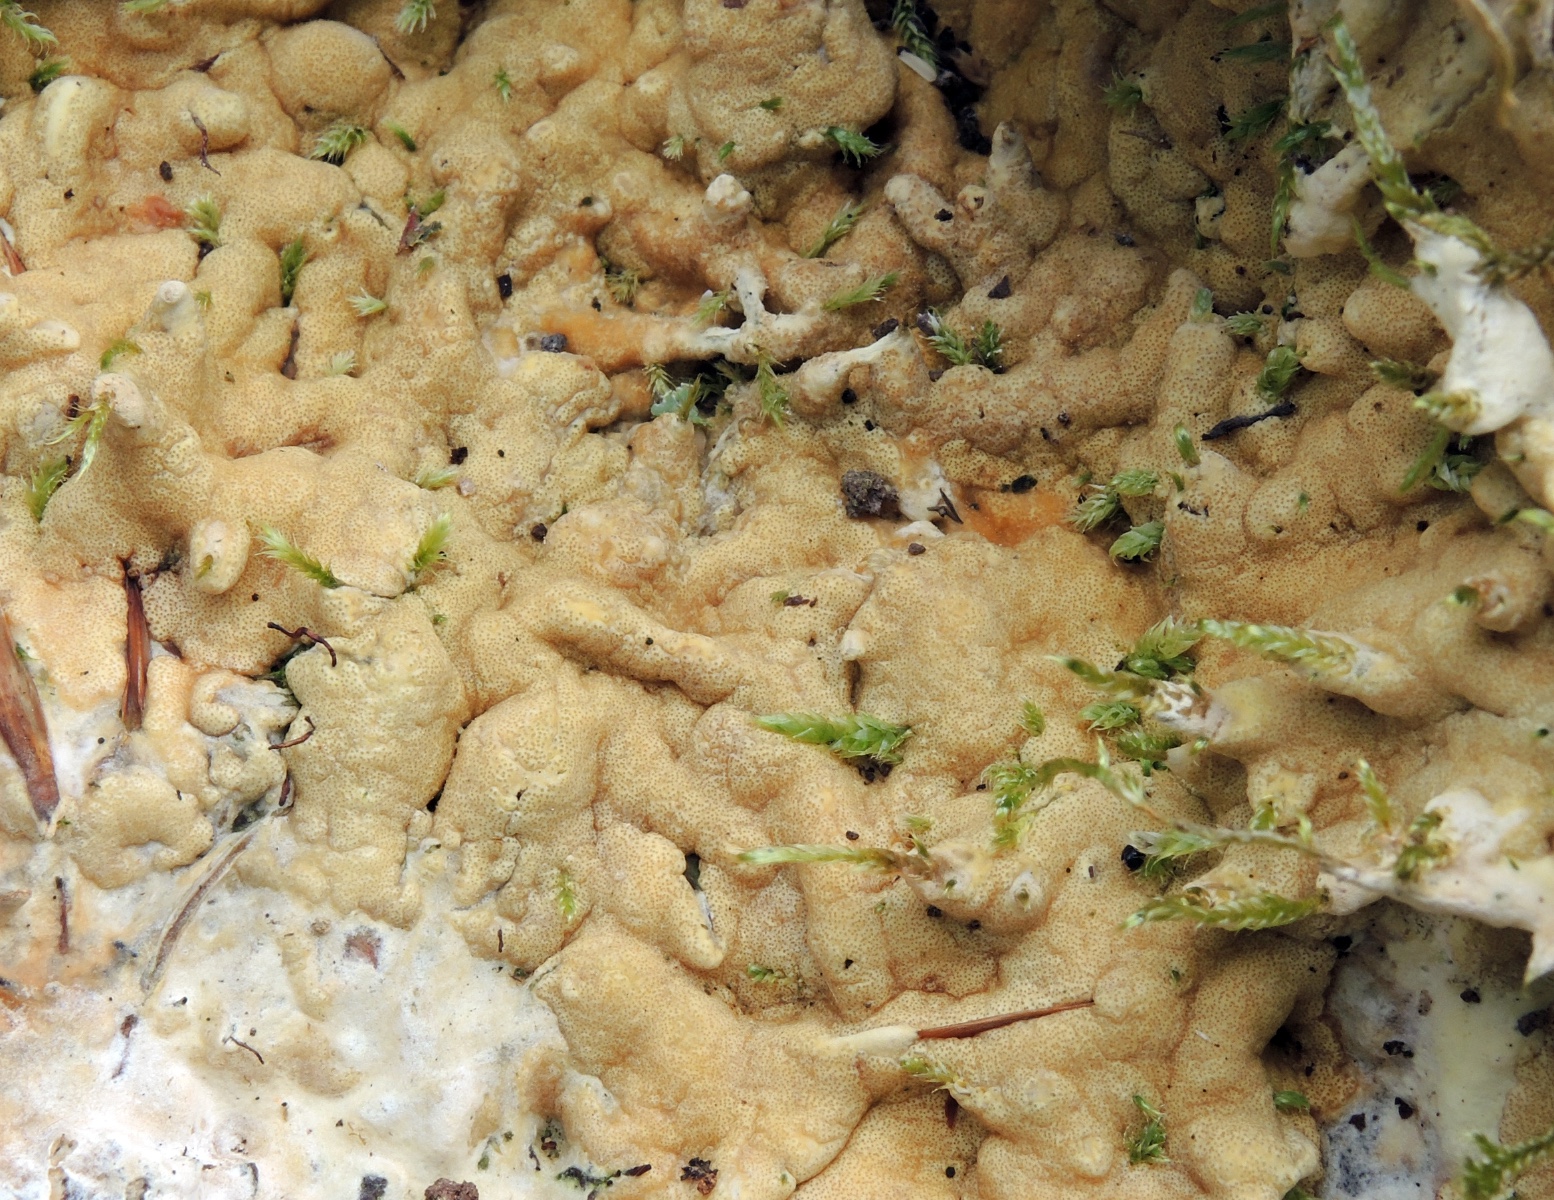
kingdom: Fungi
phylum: Ascomycota
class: Sordariomycetes
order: Hypocreales
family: Hypocreaceae
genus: Trichoderma
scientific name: Trichoderma citrinum
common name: udbredt kødkerne
